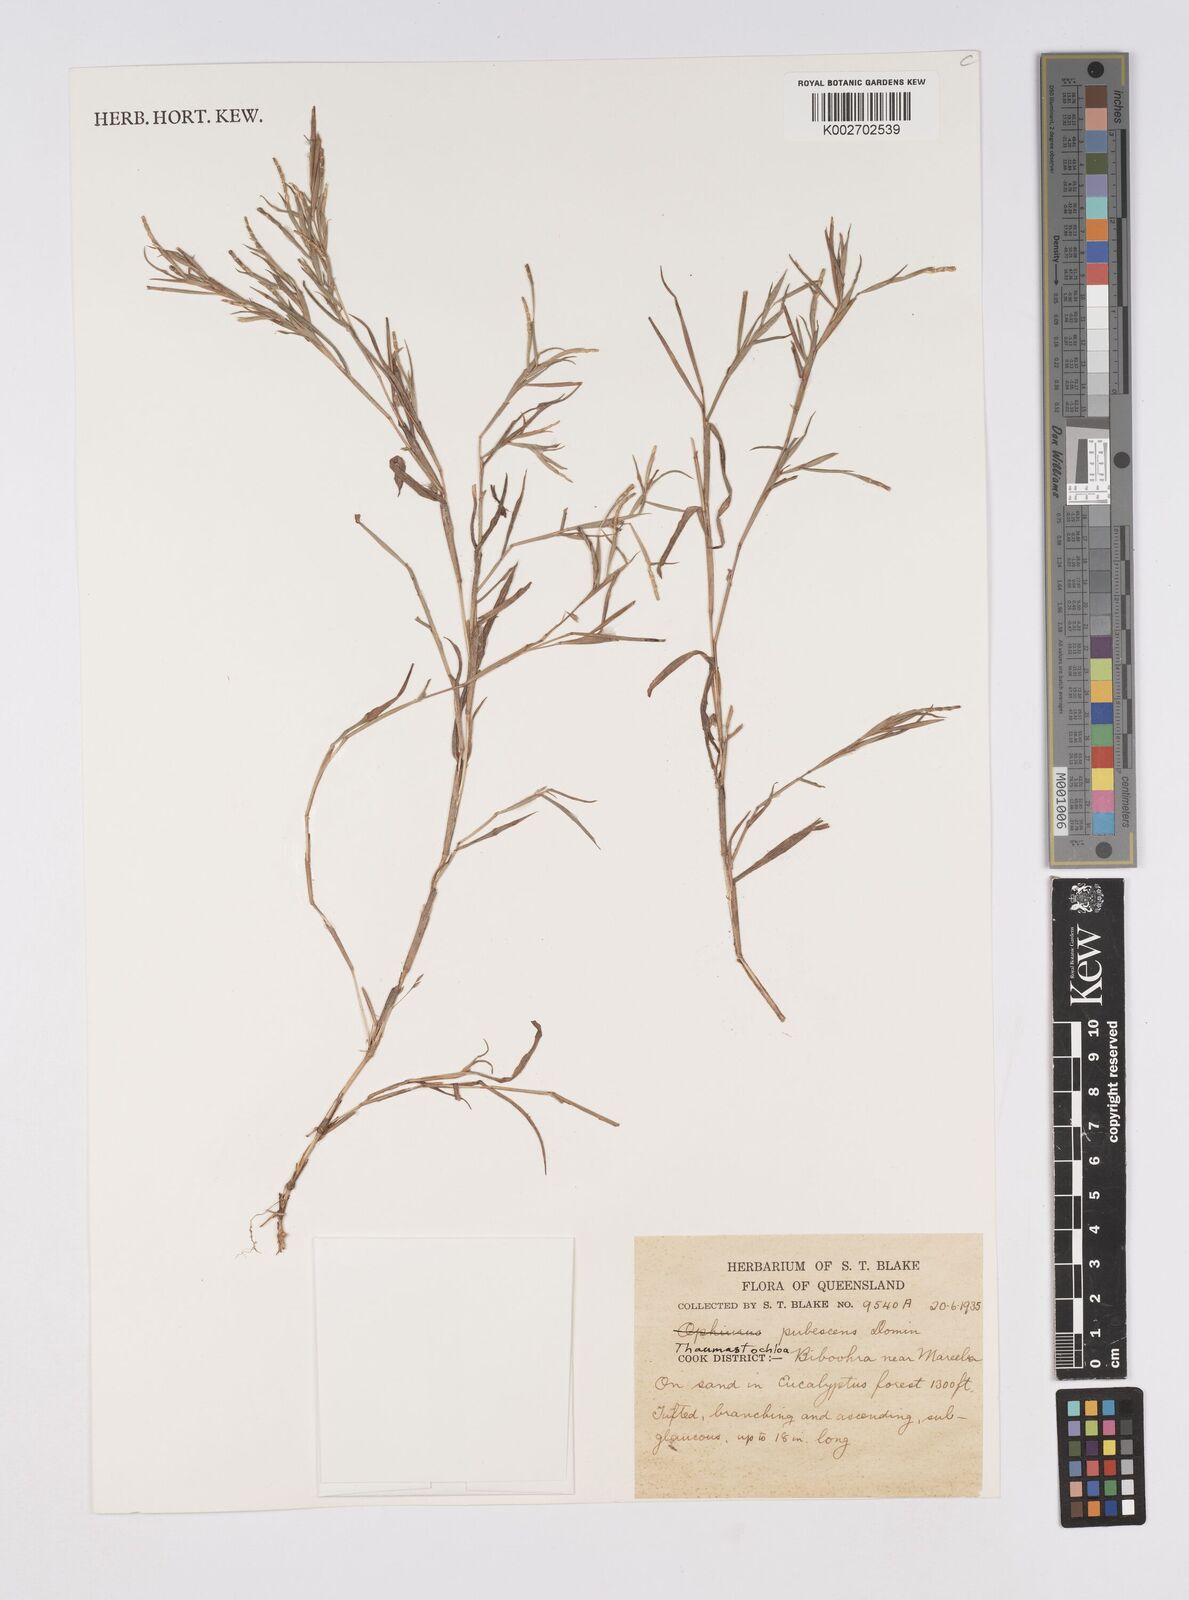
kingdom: Plantae
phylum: Tracheophyta
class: Liliopsida
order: Poales
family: Poaceae
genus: Thaumastochloa
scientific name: Thaumastochloa pubescens
